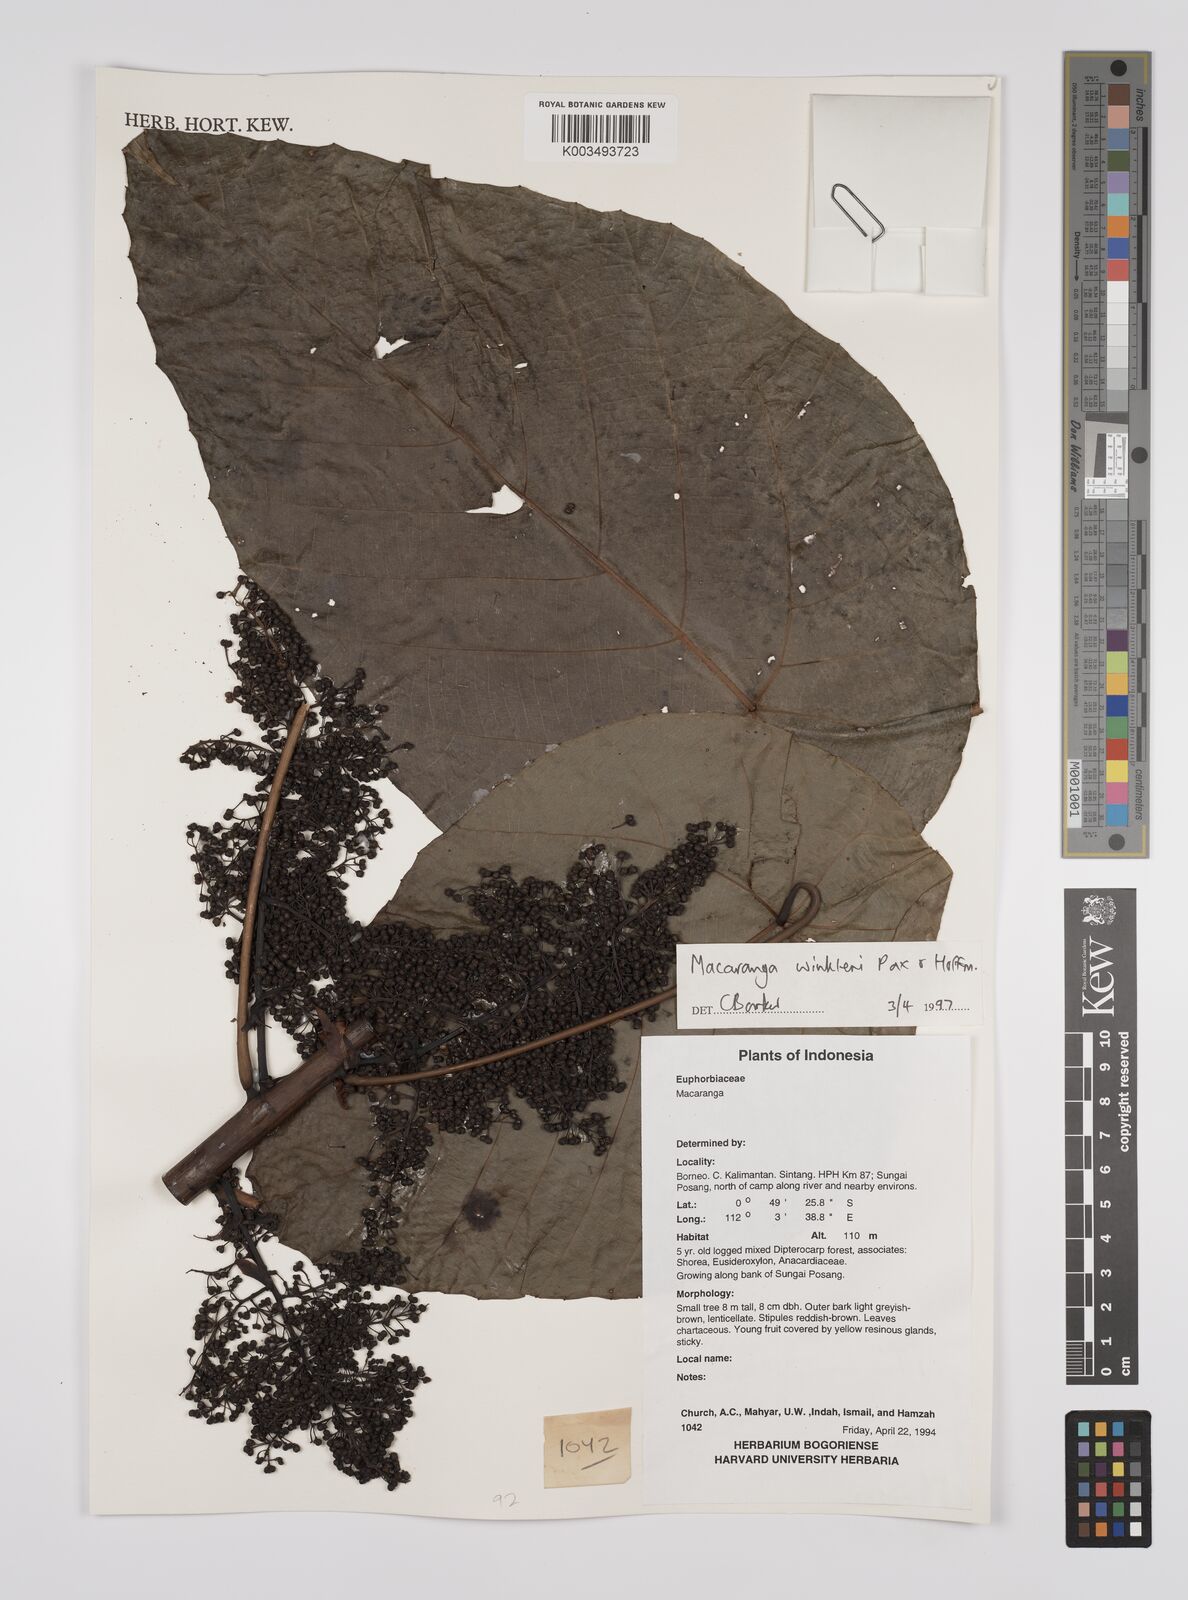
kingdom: Plantae
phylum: Tracheophyta
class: Magnoliopsida
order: Malpighiales
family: Euphorbiaceae
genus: Macaranga
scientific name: Macaranga winkleri
